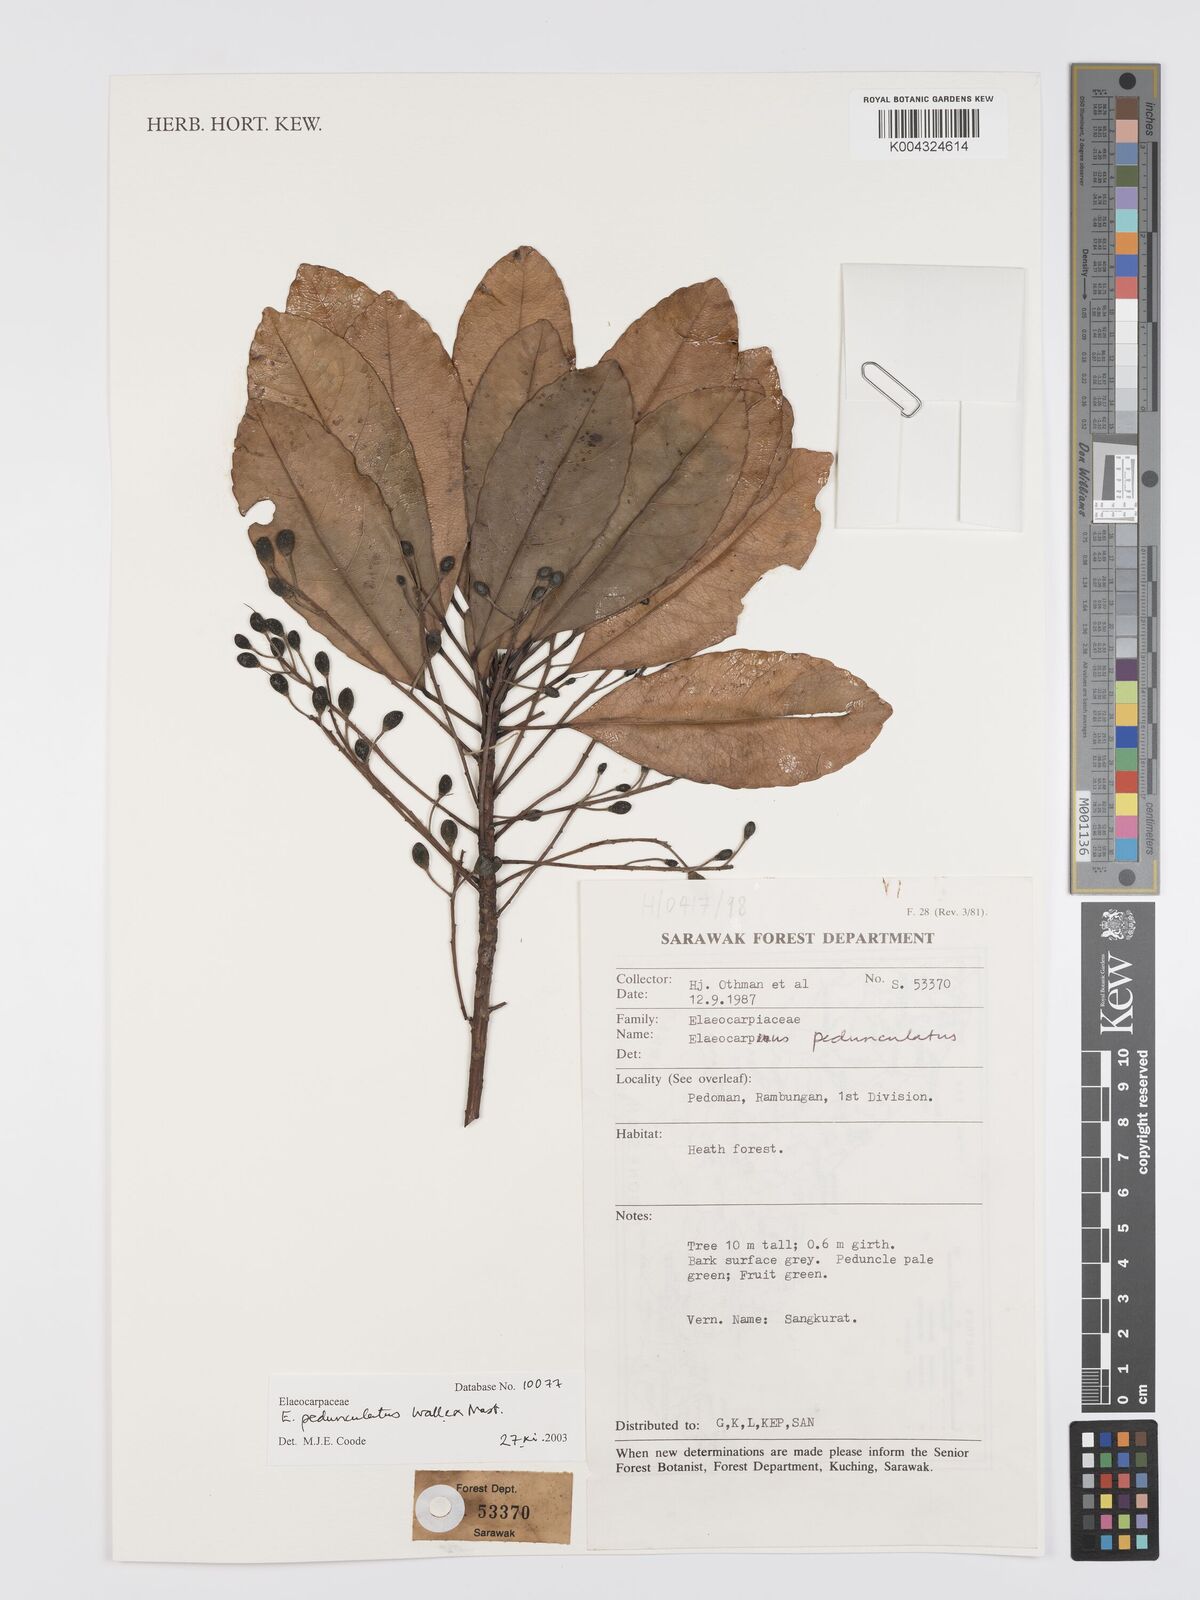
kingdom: Plantae
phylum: Tracheophyta
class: Magnoliopsida
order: Oxalidales
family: Elaeocarpaceae
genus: Elaeocarpus
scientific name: Elaeocarpus pedunculatus
